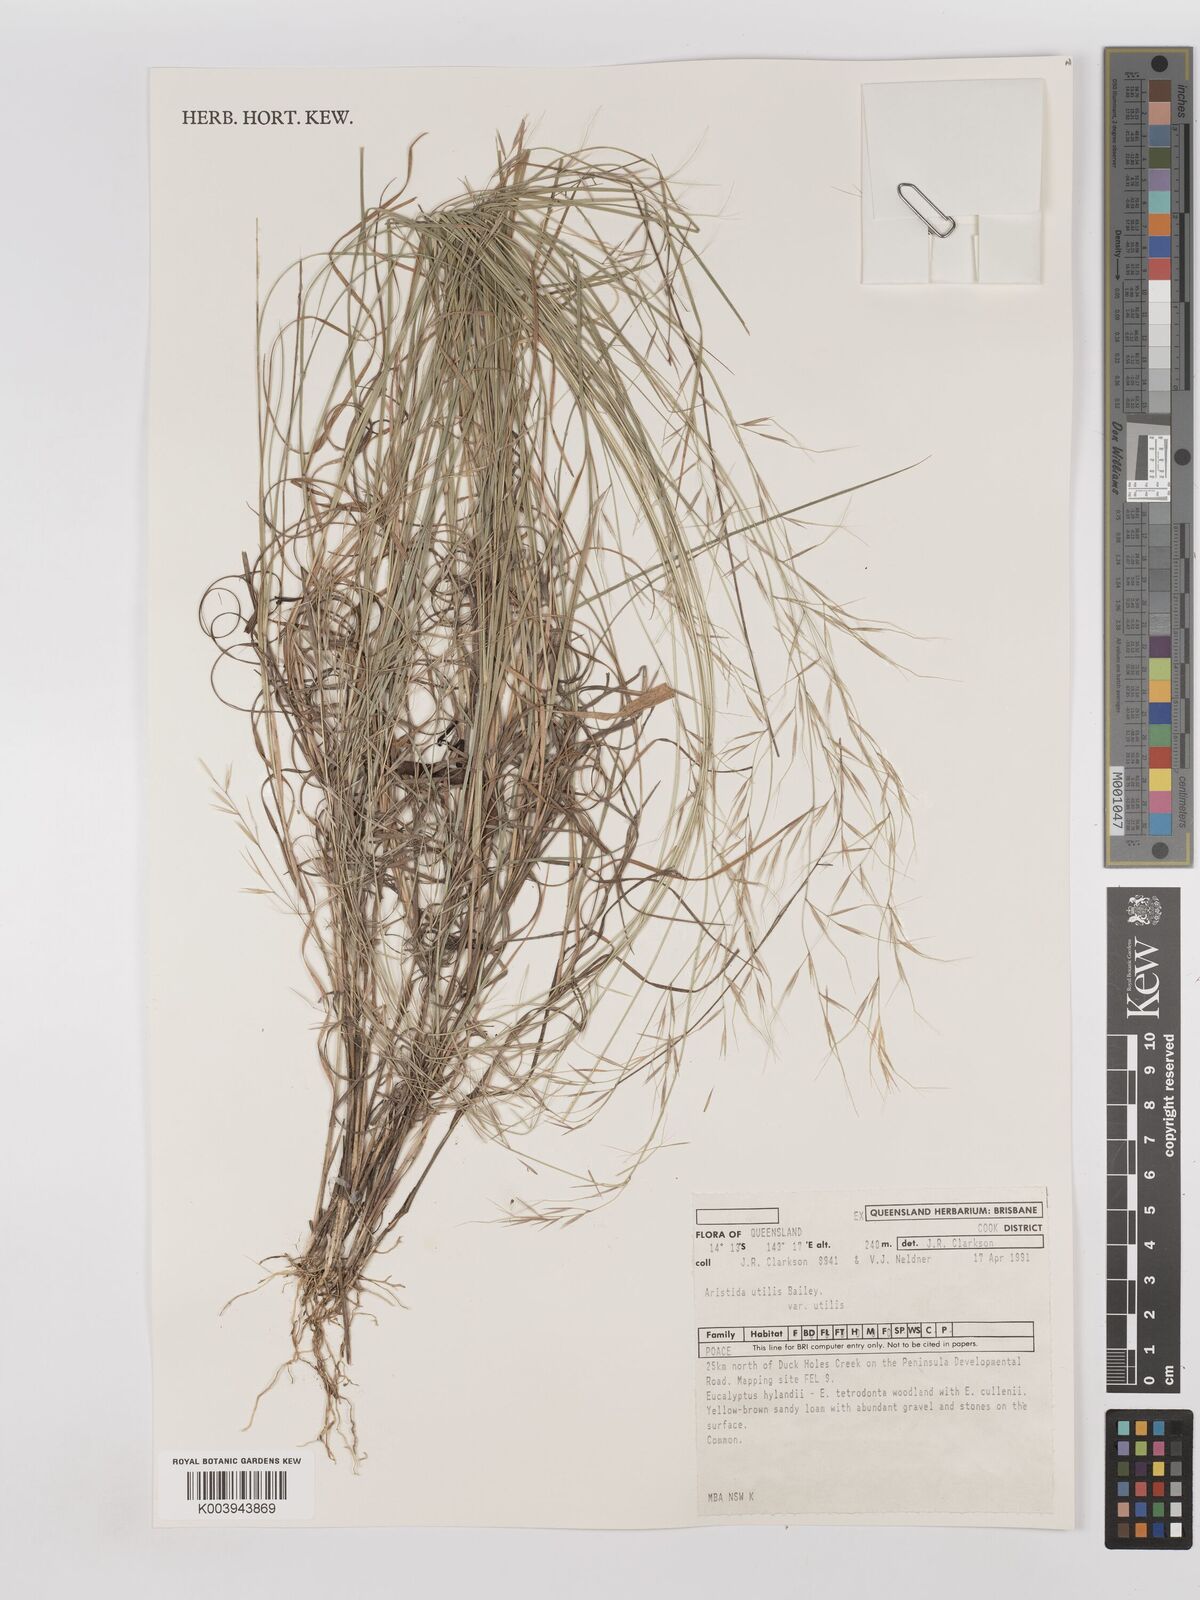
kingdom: Plantae
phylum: Tracheophyta
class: Liliopsida
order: Poales
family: Poaceae
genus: Aristida
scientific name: Aristida utilis
